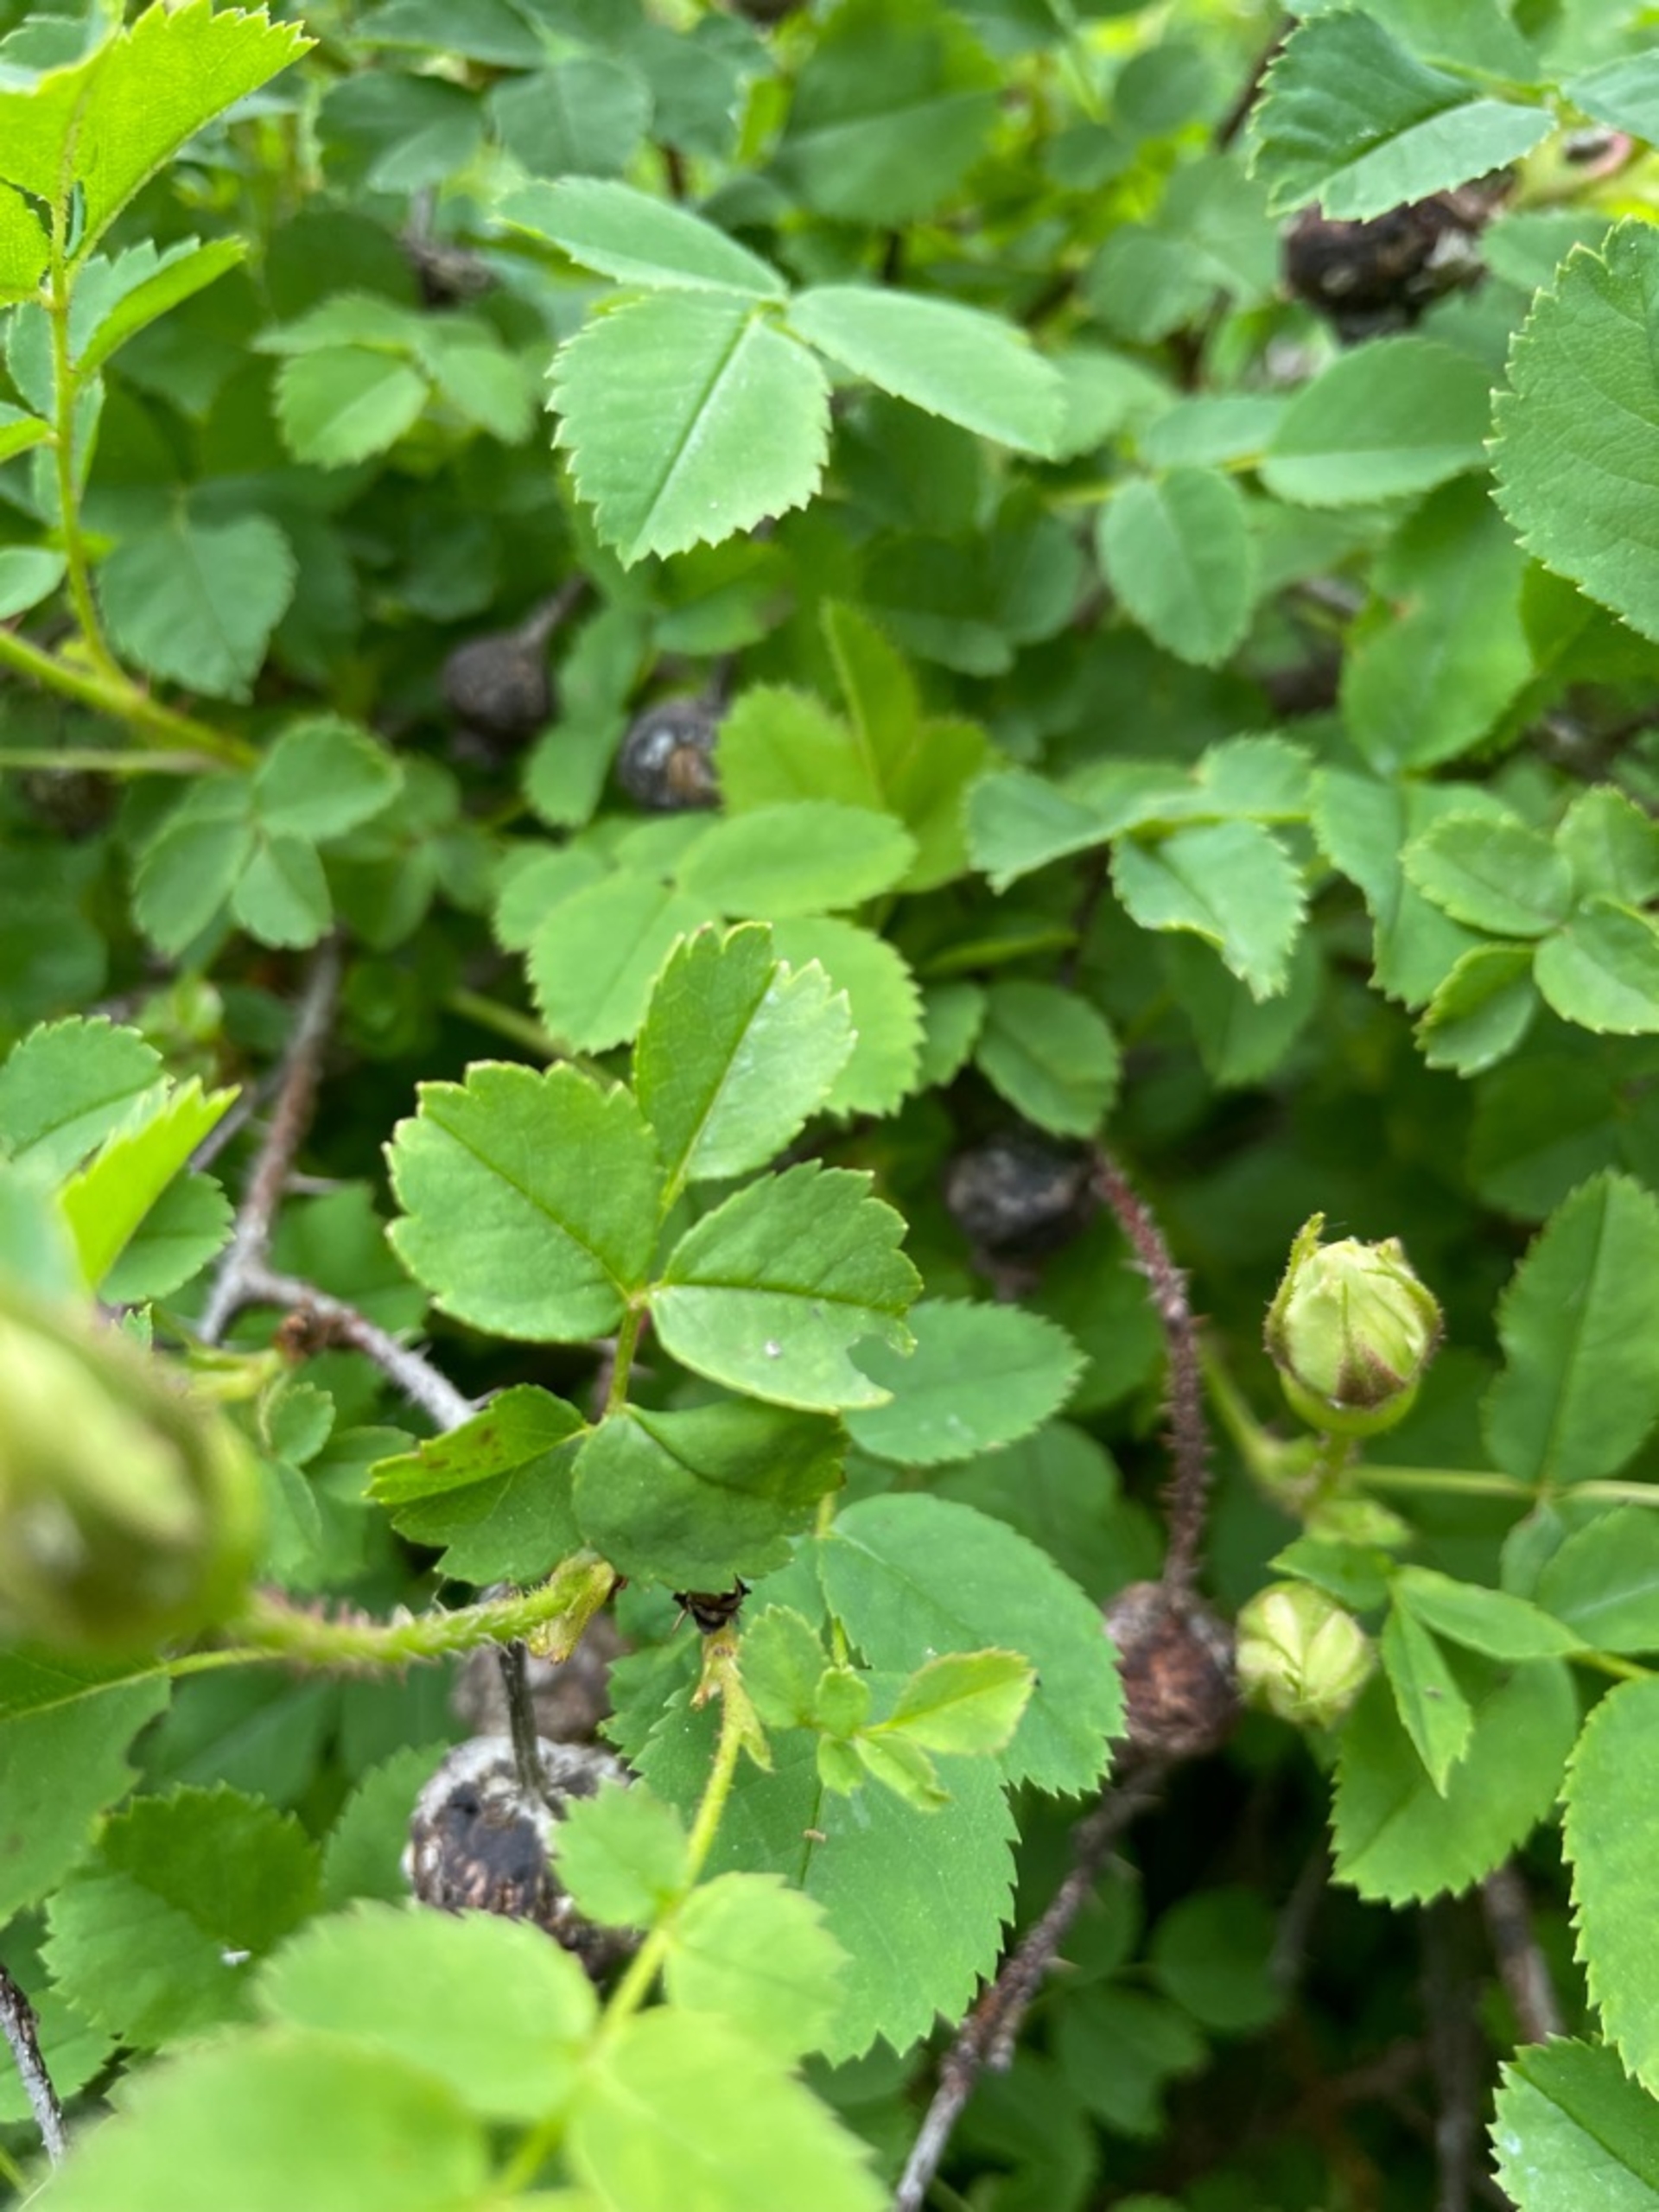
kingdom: Plantae
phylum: Tracheophyta
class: Magnoliopsida
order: Rosales
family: Rosaceae
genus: Rosa
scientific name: Rosa spinosissima
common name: Klit-rose
